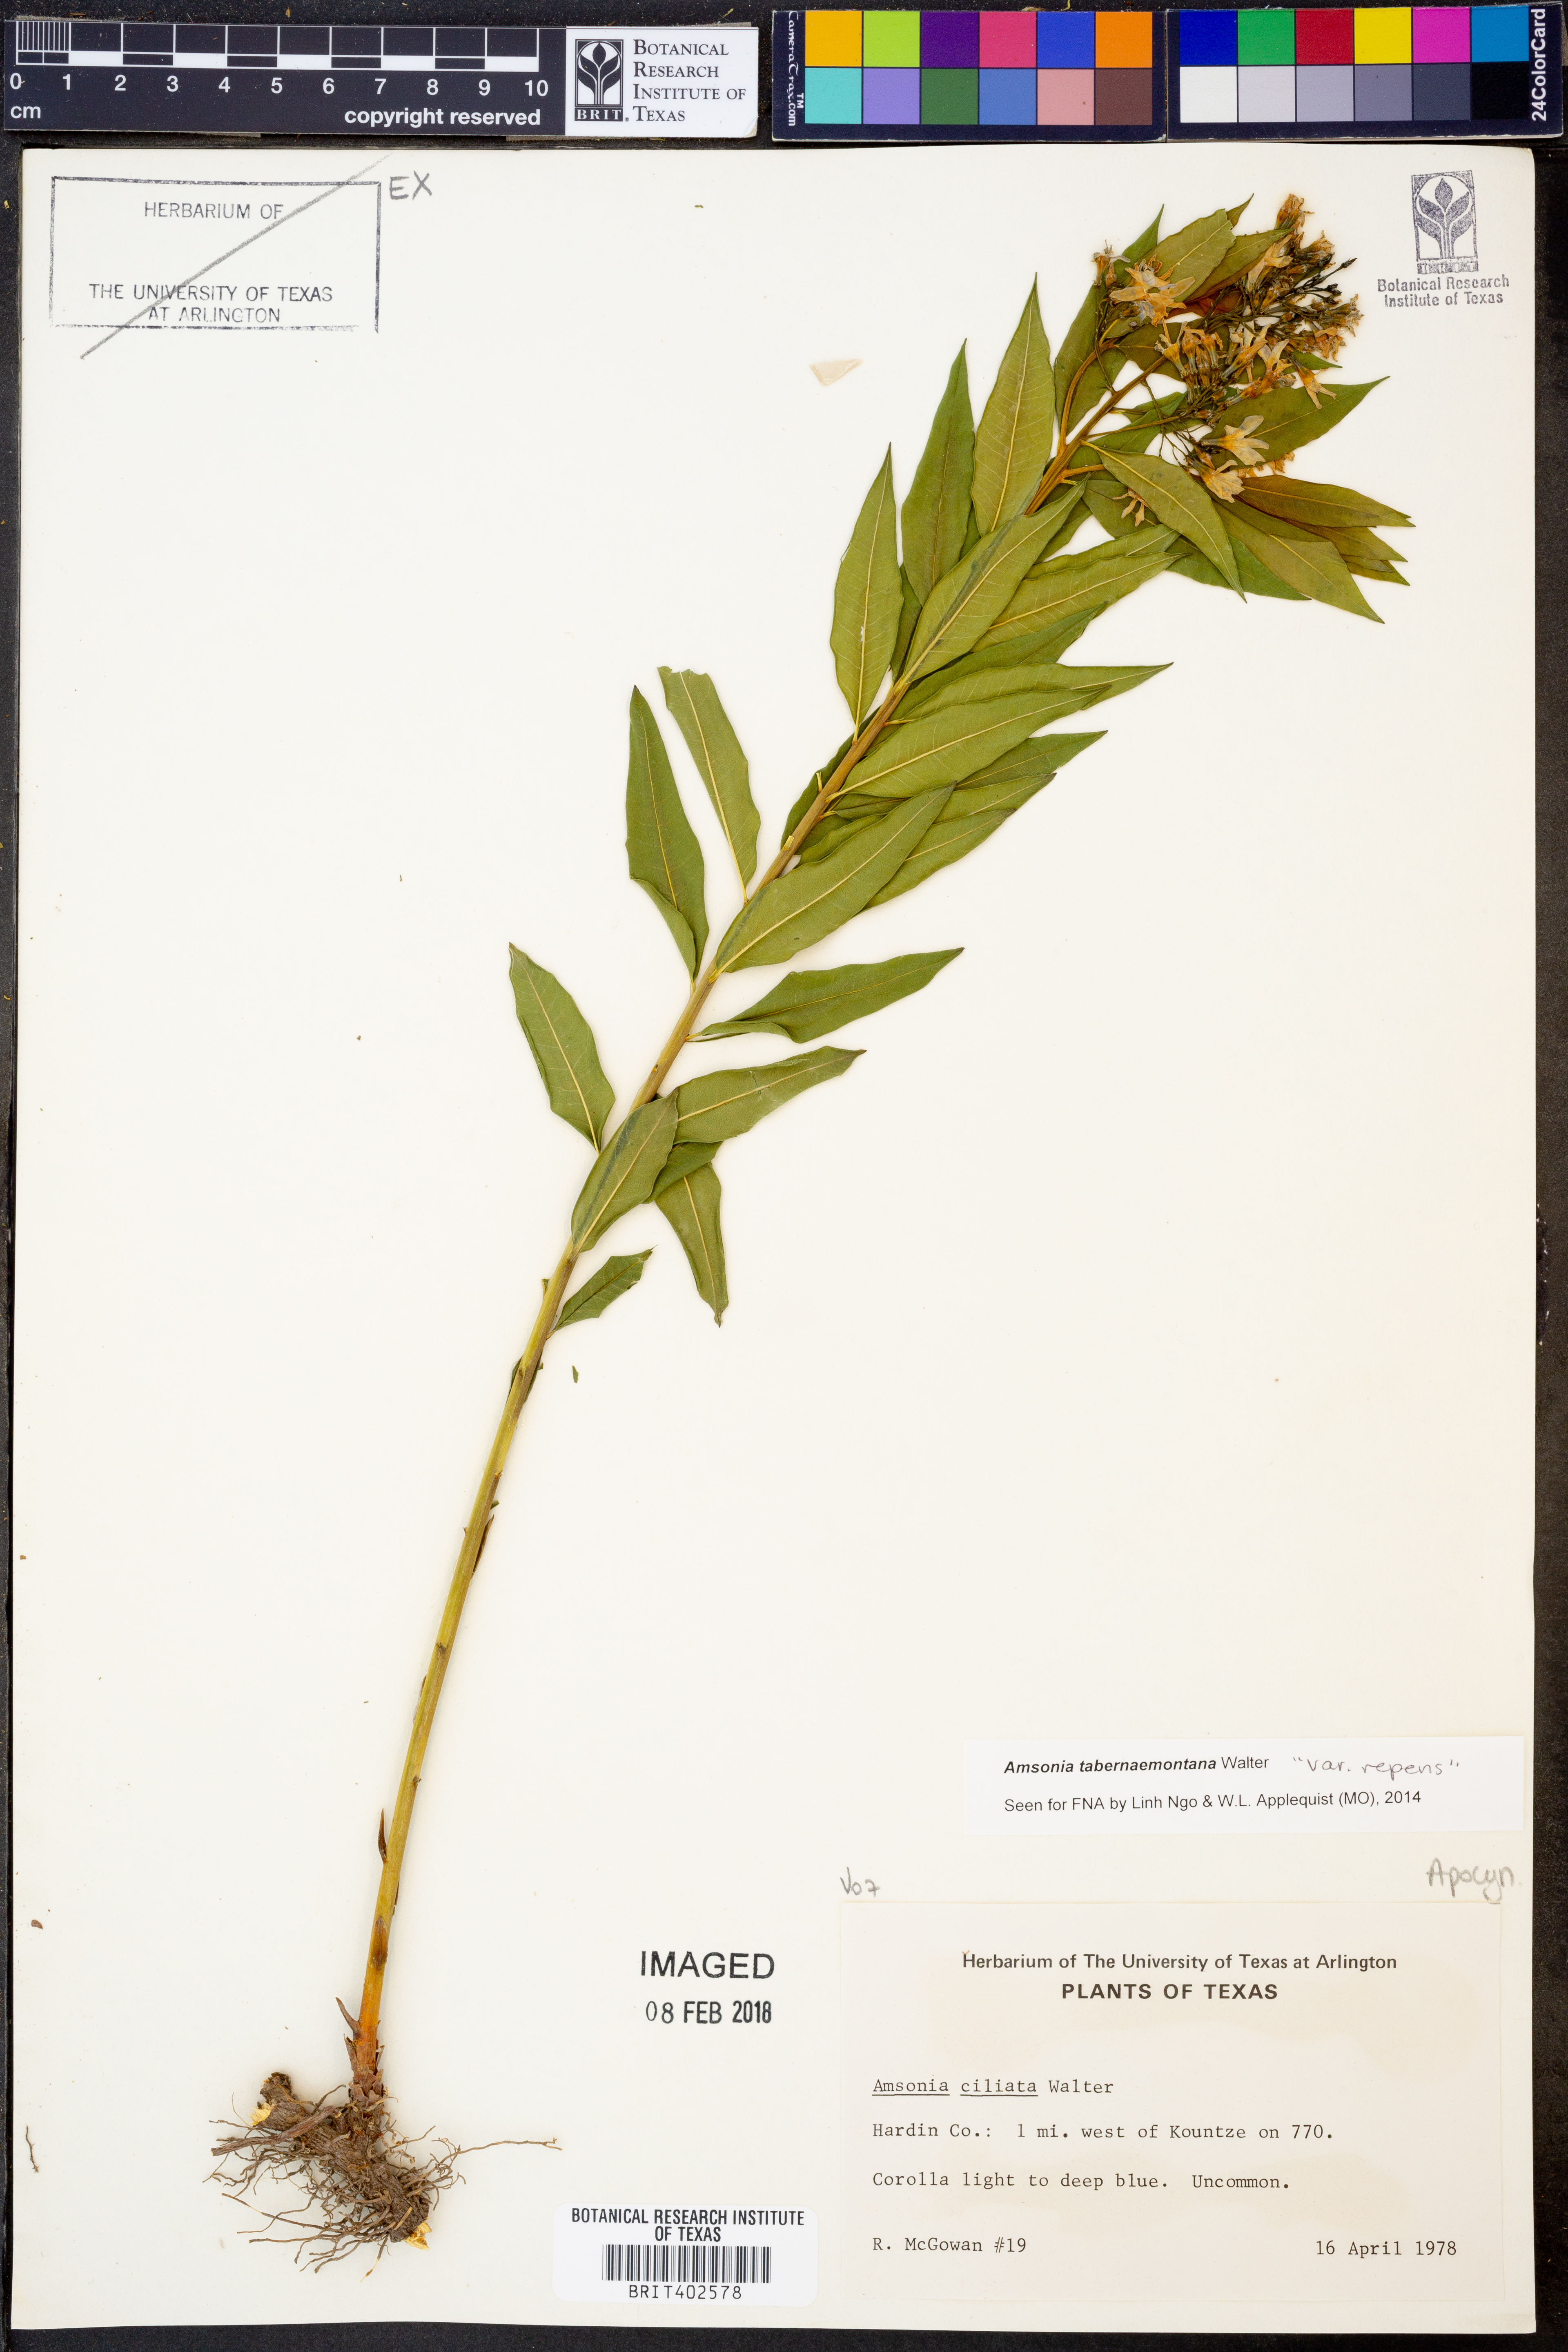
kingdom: Plantae
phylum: Tracheophyta
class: Magnoliopsida
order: Gentianales
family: Apocynaceae
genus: Amsonia
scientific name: Amsonia tabernaemontana
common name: Texas-star
